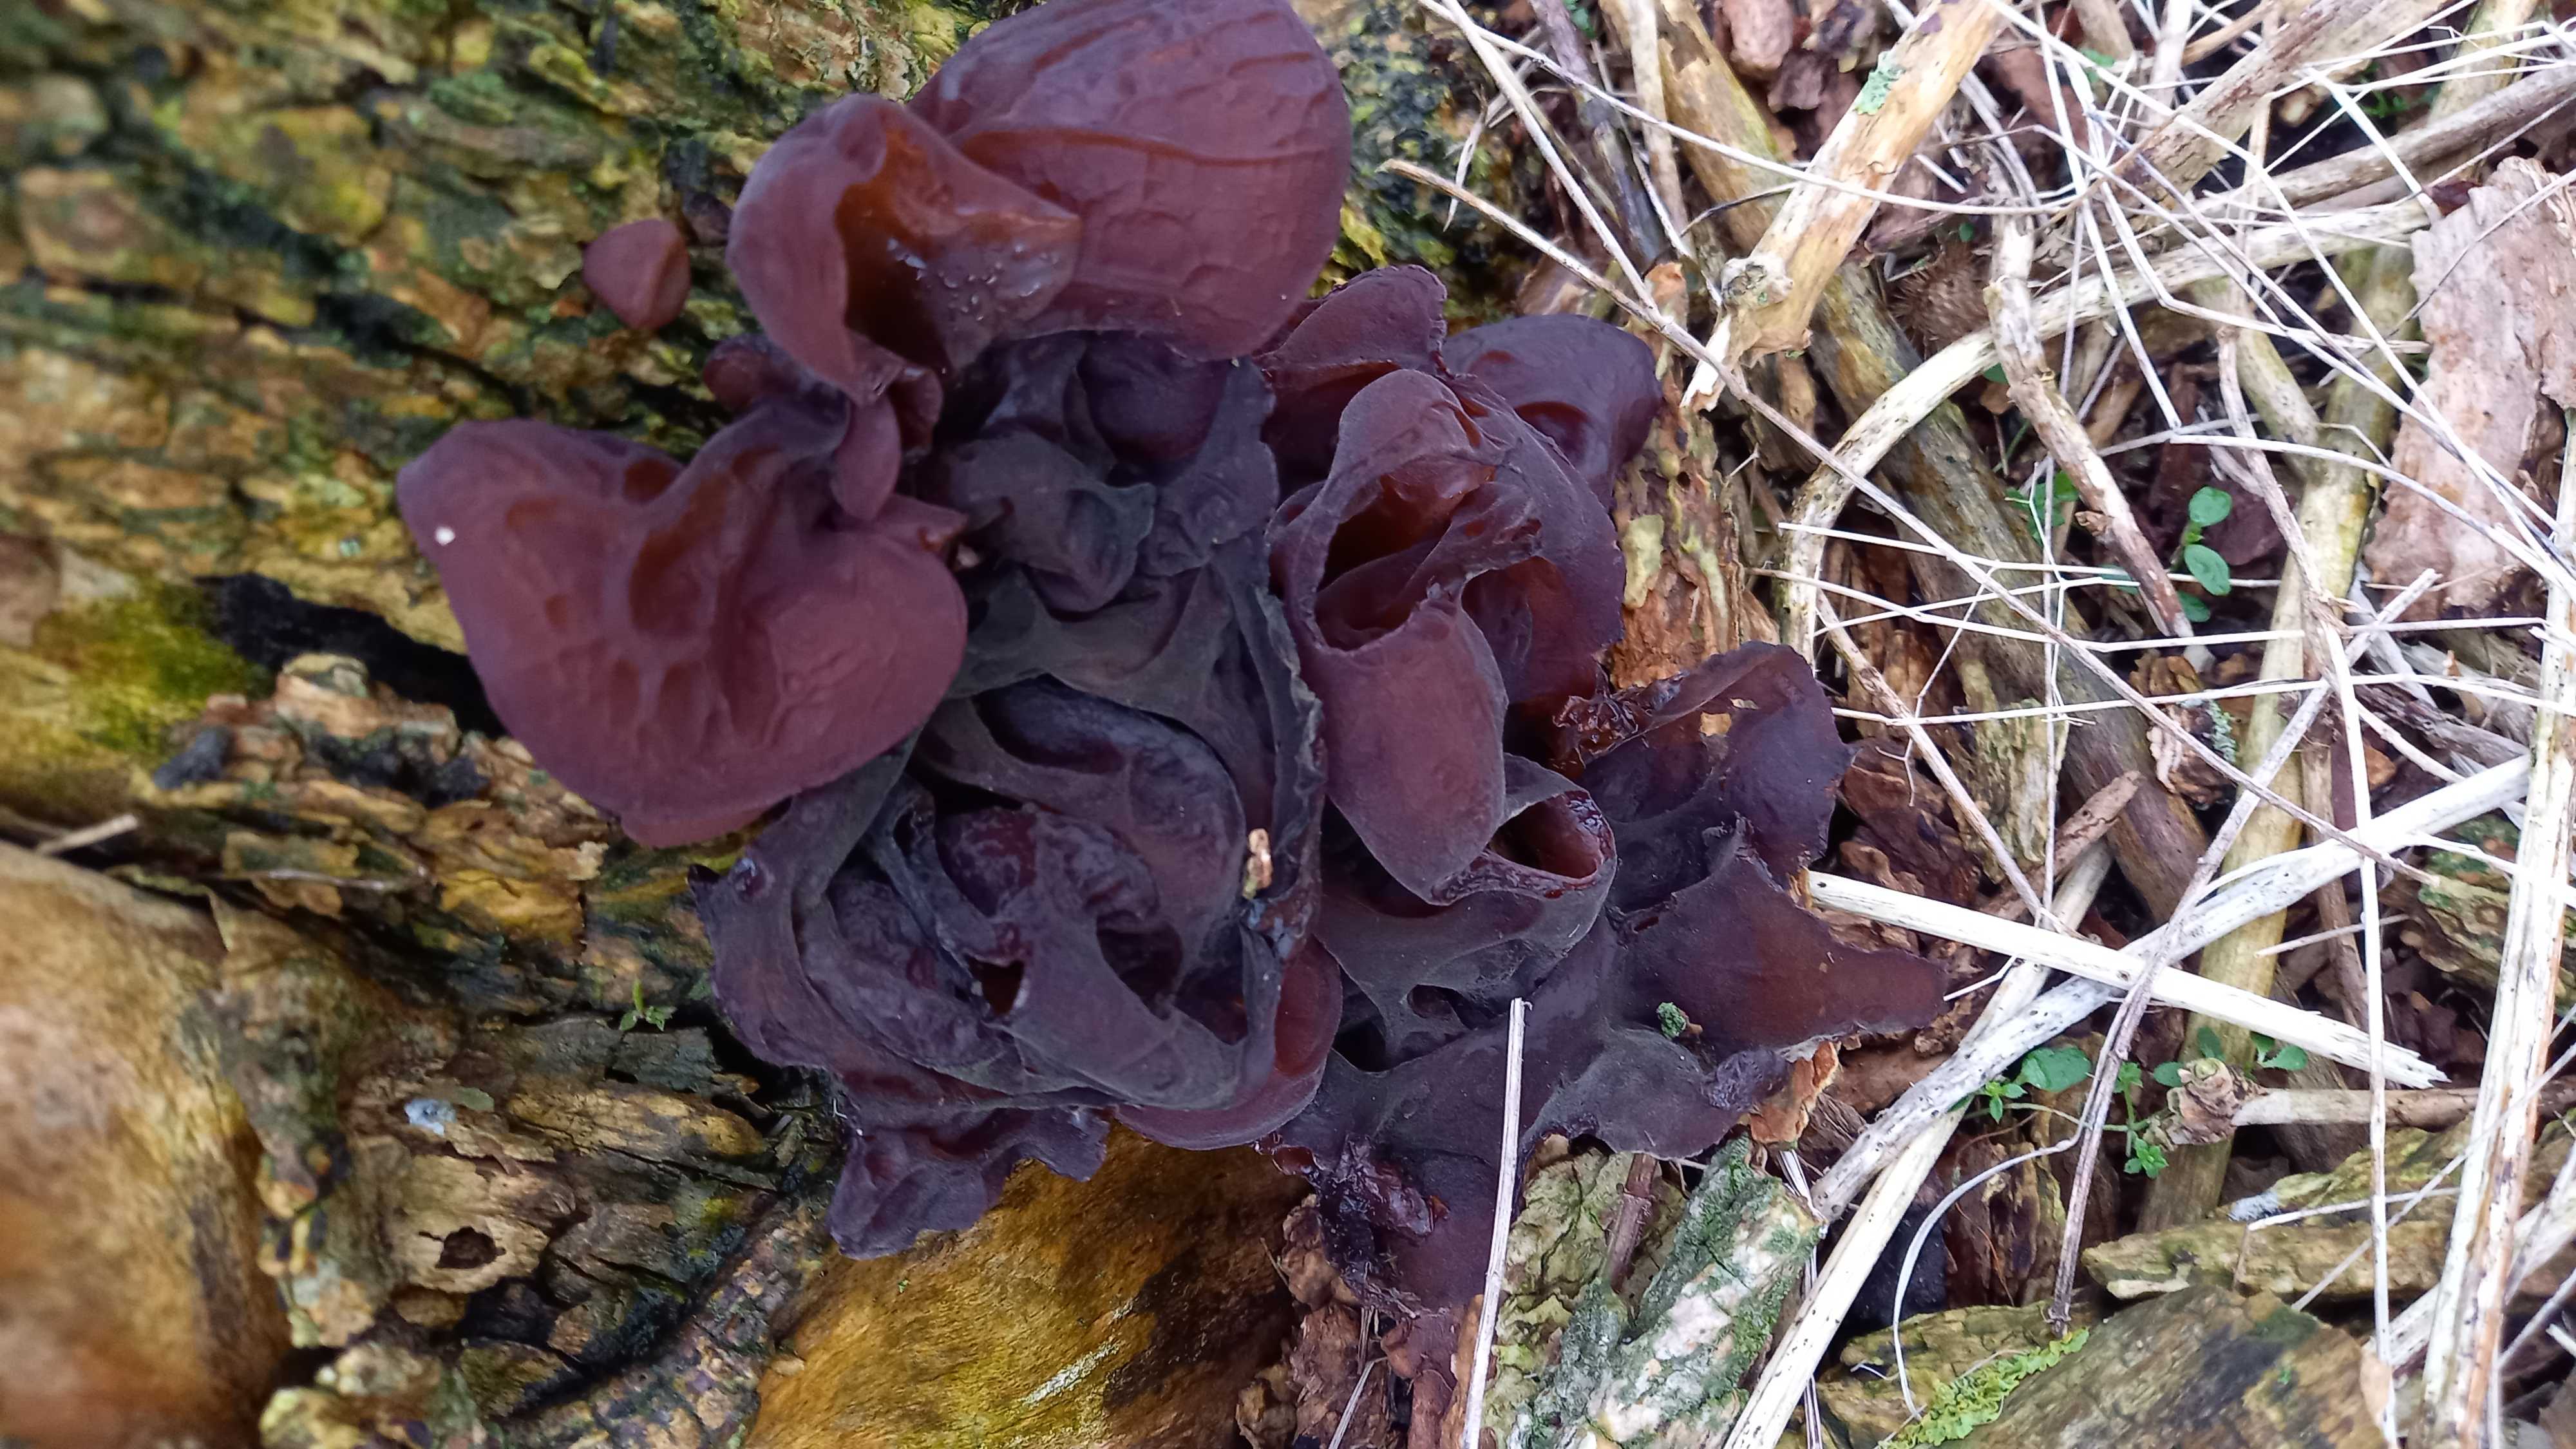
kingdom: Fungi
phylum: Basidiomycota
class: Agaricomycetes
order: Auriculariales
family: Auriculariaceae
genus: Auricularia
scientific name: Auricularia auricula-judae
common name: almindelig judasøre
